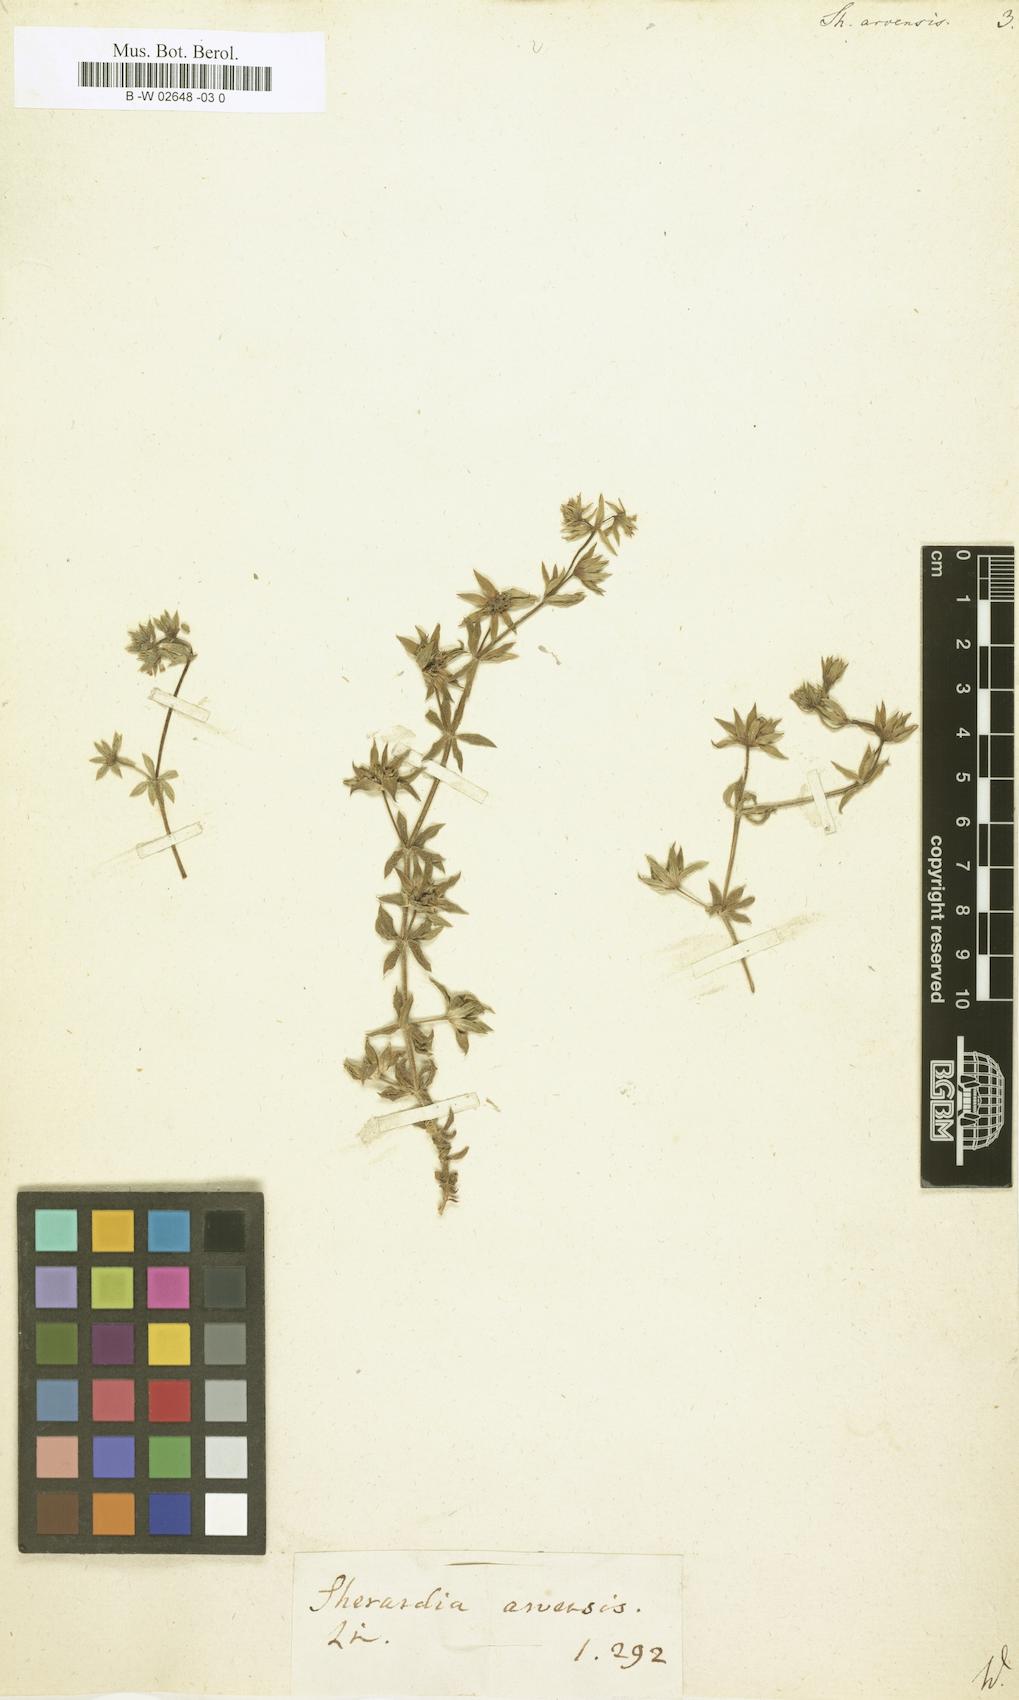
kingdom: Plantae
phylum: Tracheophyta
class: Magnoliopsida
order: Gentianales
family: Rubiaceae
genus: Sherardia
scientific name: Sherardia arvensis
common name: Field madder
